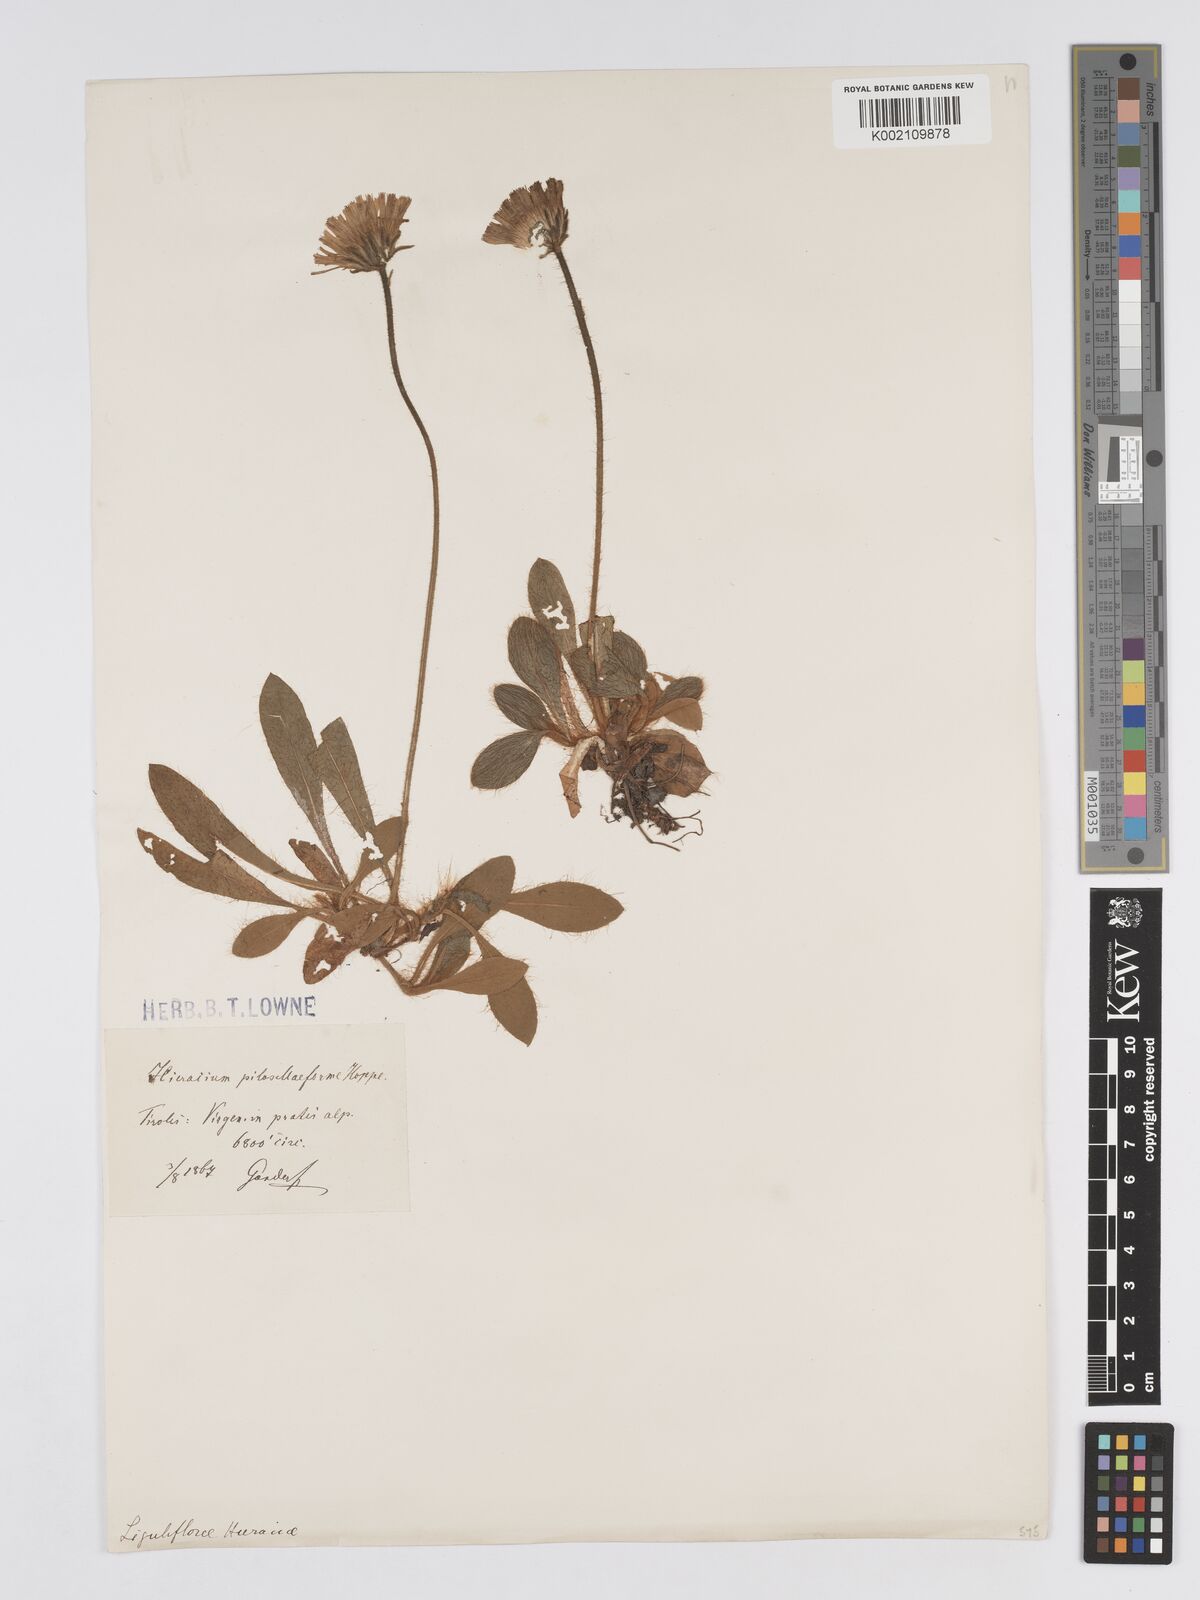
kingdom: Plantae
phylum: Tracheophyta
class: Magnoliopsida
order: Asterales
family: Asteraceae
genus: Pilosella
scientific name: Pilosella hoppeana
